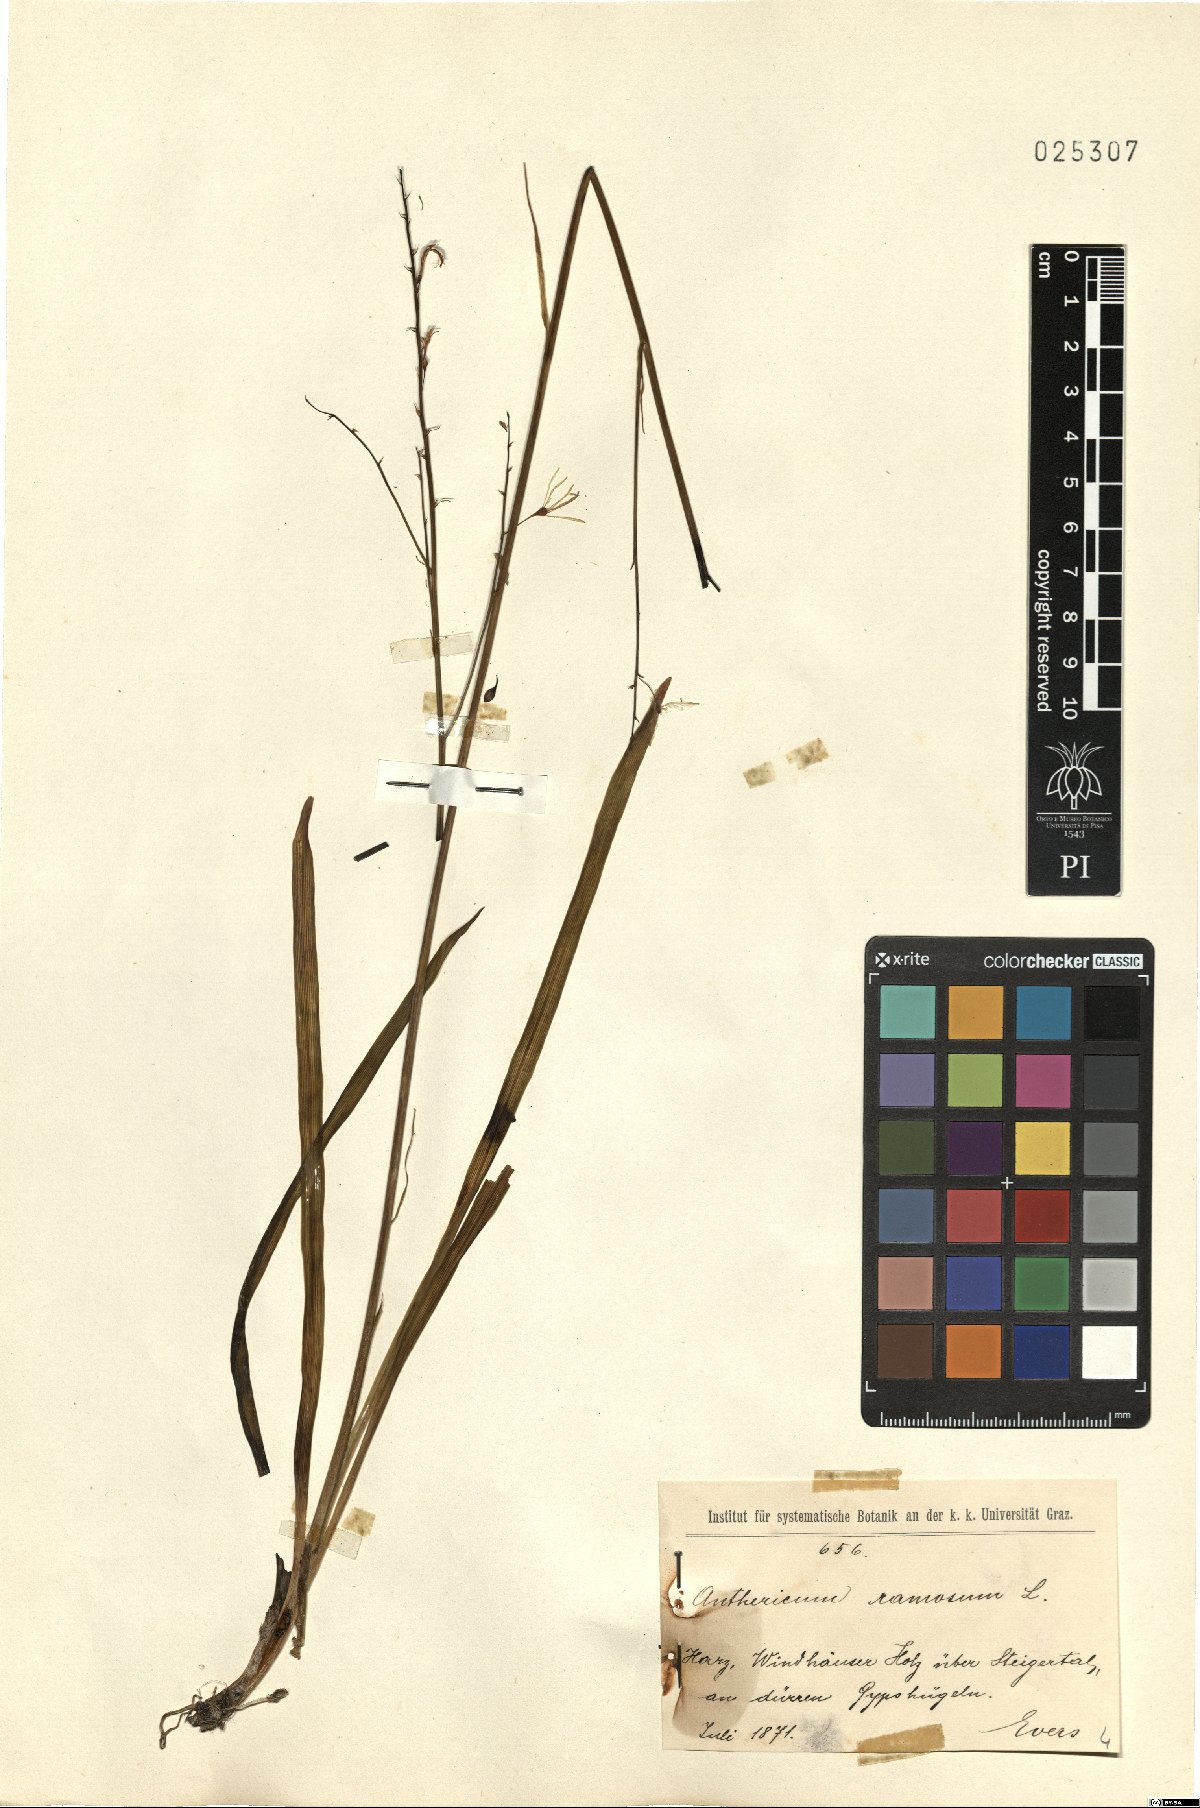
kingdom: Plantae
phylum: Tracheophyta
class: Liliopsida
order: Asparagales
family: Asparagaceae
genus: Anthericum
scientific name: Anthericum ramosum
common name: Branched st. bernard's-lily
